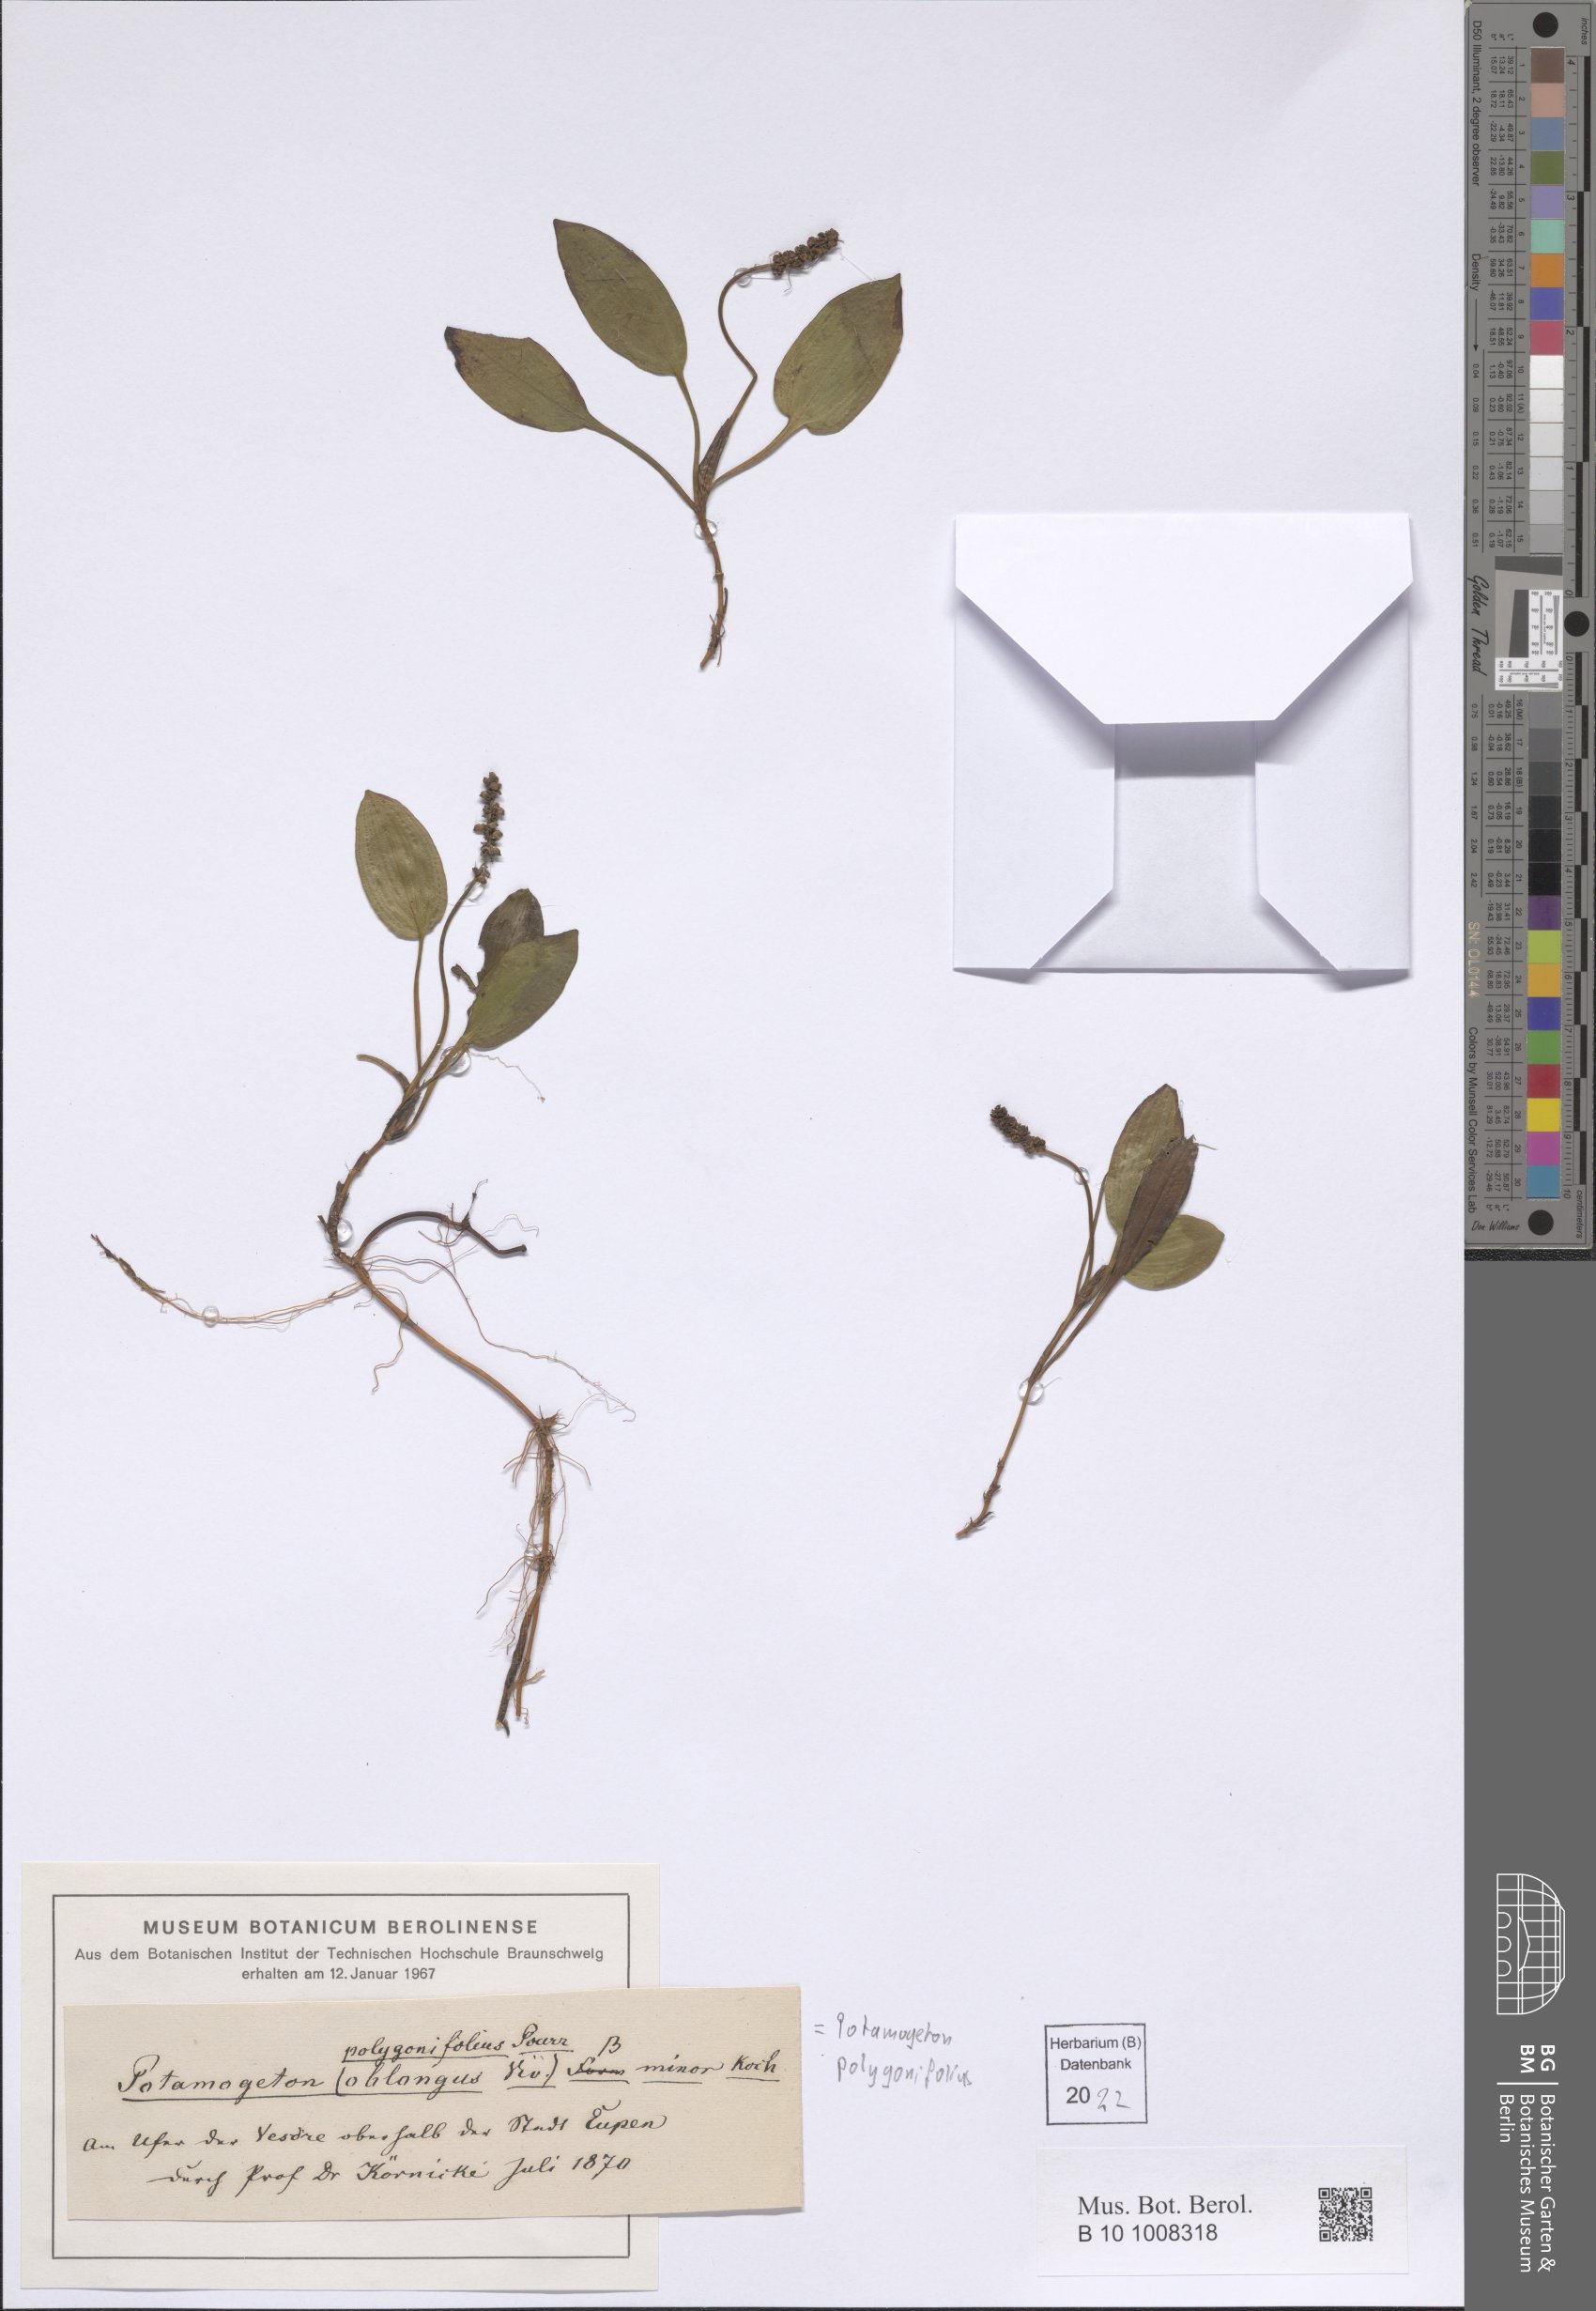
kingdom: Plantae
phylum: Tracheophyta
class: Liliopsida
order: Alismatales
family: Potamogetonaceae
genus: Potamogeton
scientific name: Potamogeton polygonifolius
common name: Bog pondweed
